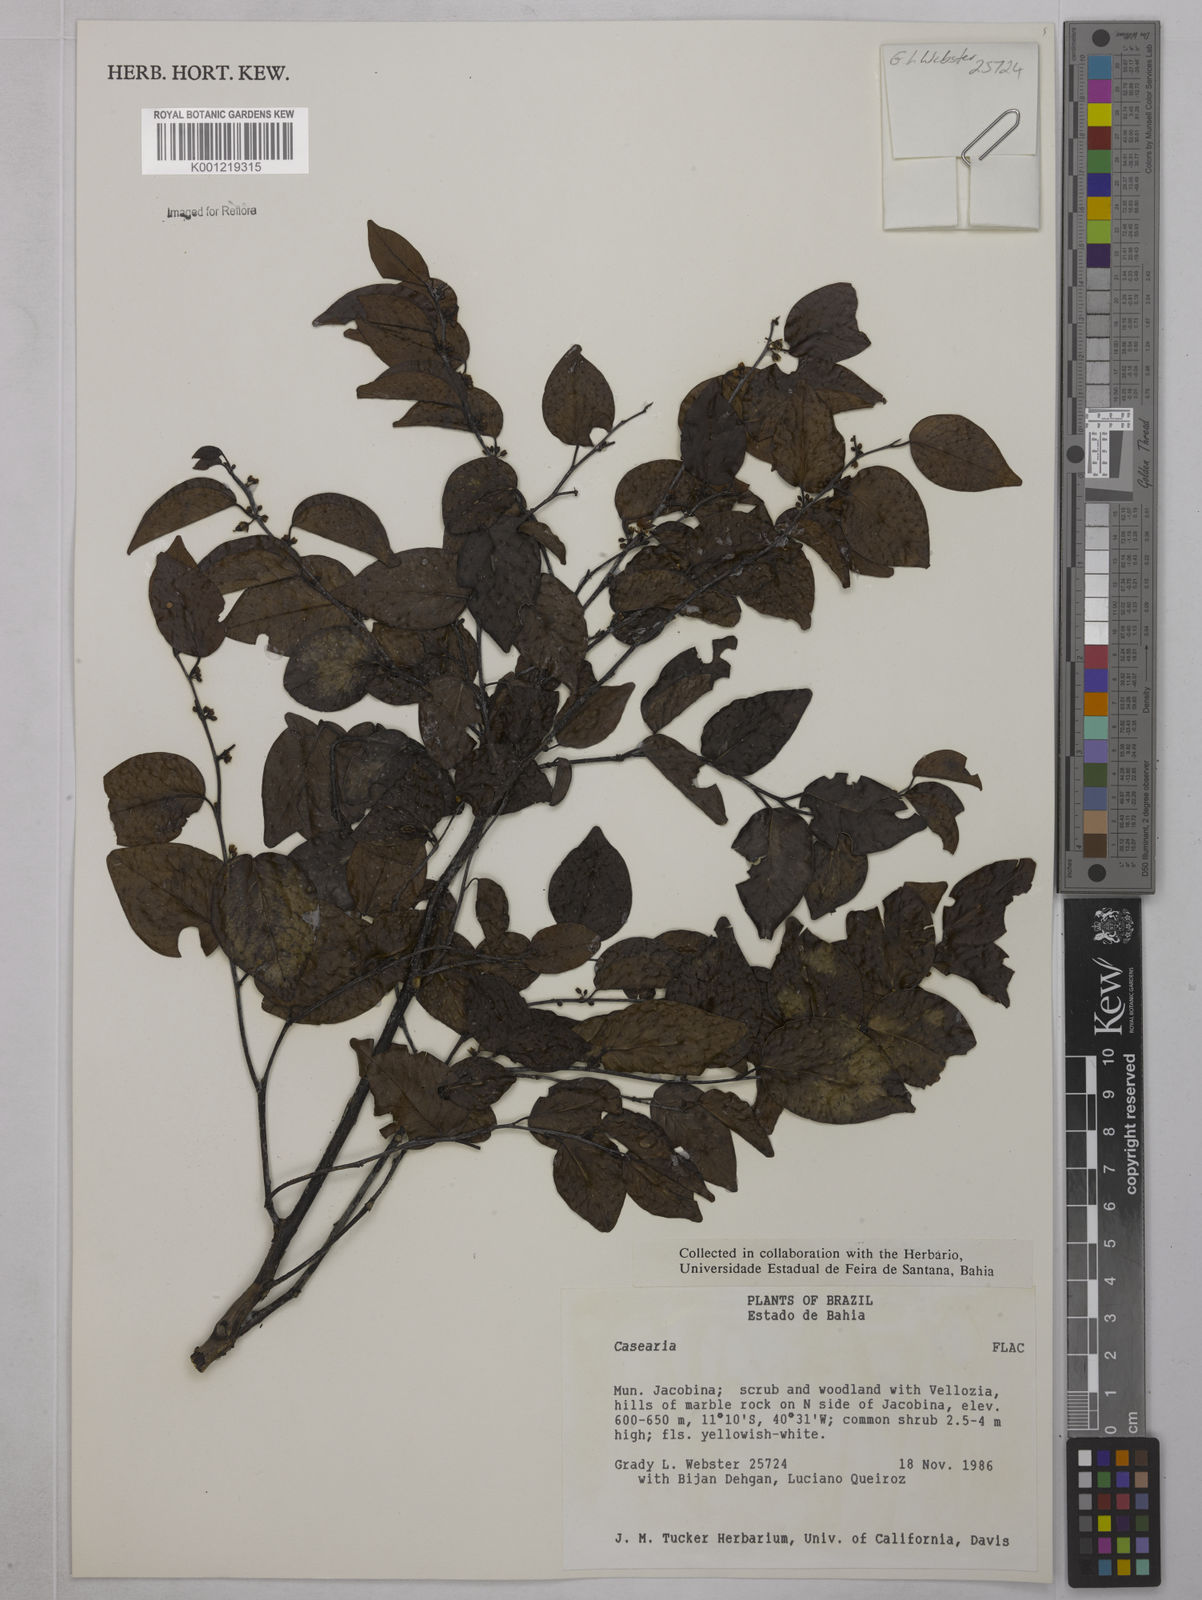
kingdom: Plantae
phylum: Tracheophyta
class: Magnoliopsida
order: Malpighiales
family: Salicaceae
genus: Casearia
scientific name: Casearia
